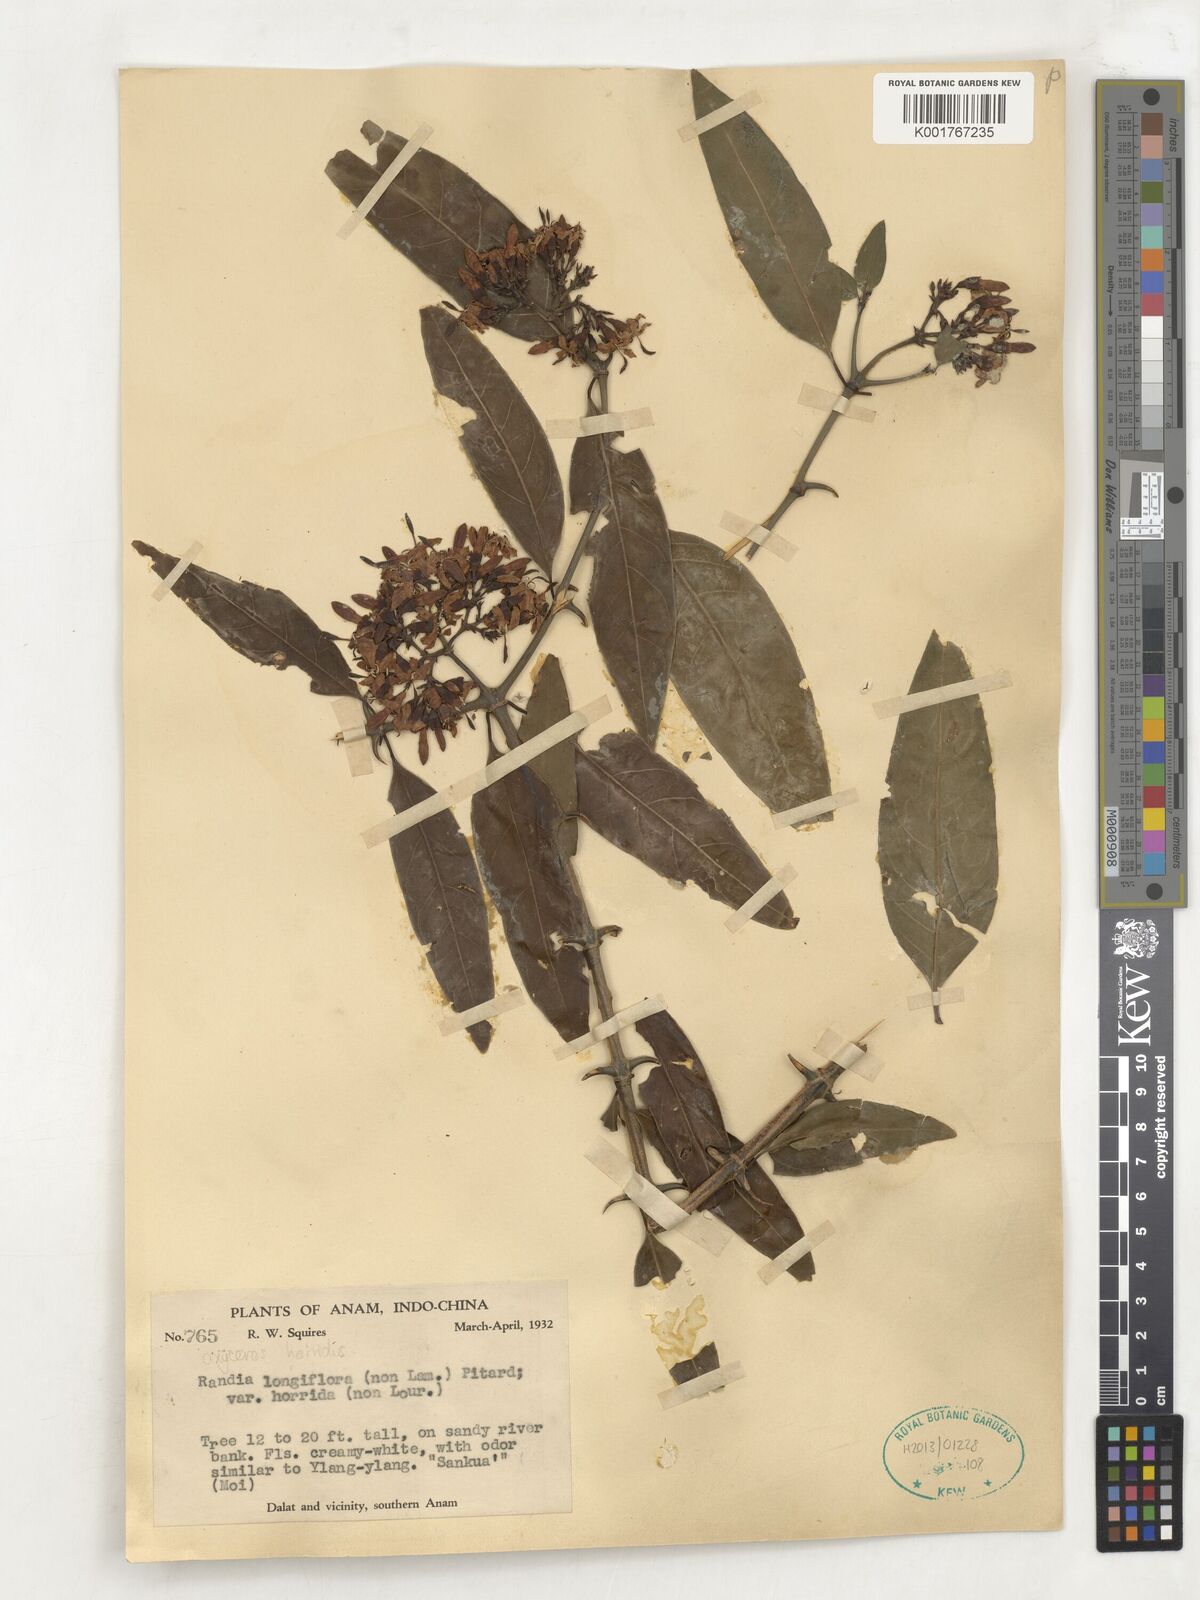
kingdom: Plantae
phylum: Tracheophyta
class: Magnoliopsida
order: Gentianales
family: Rubiaceae
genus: Oxyceros
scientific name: Oxyceros horridus
